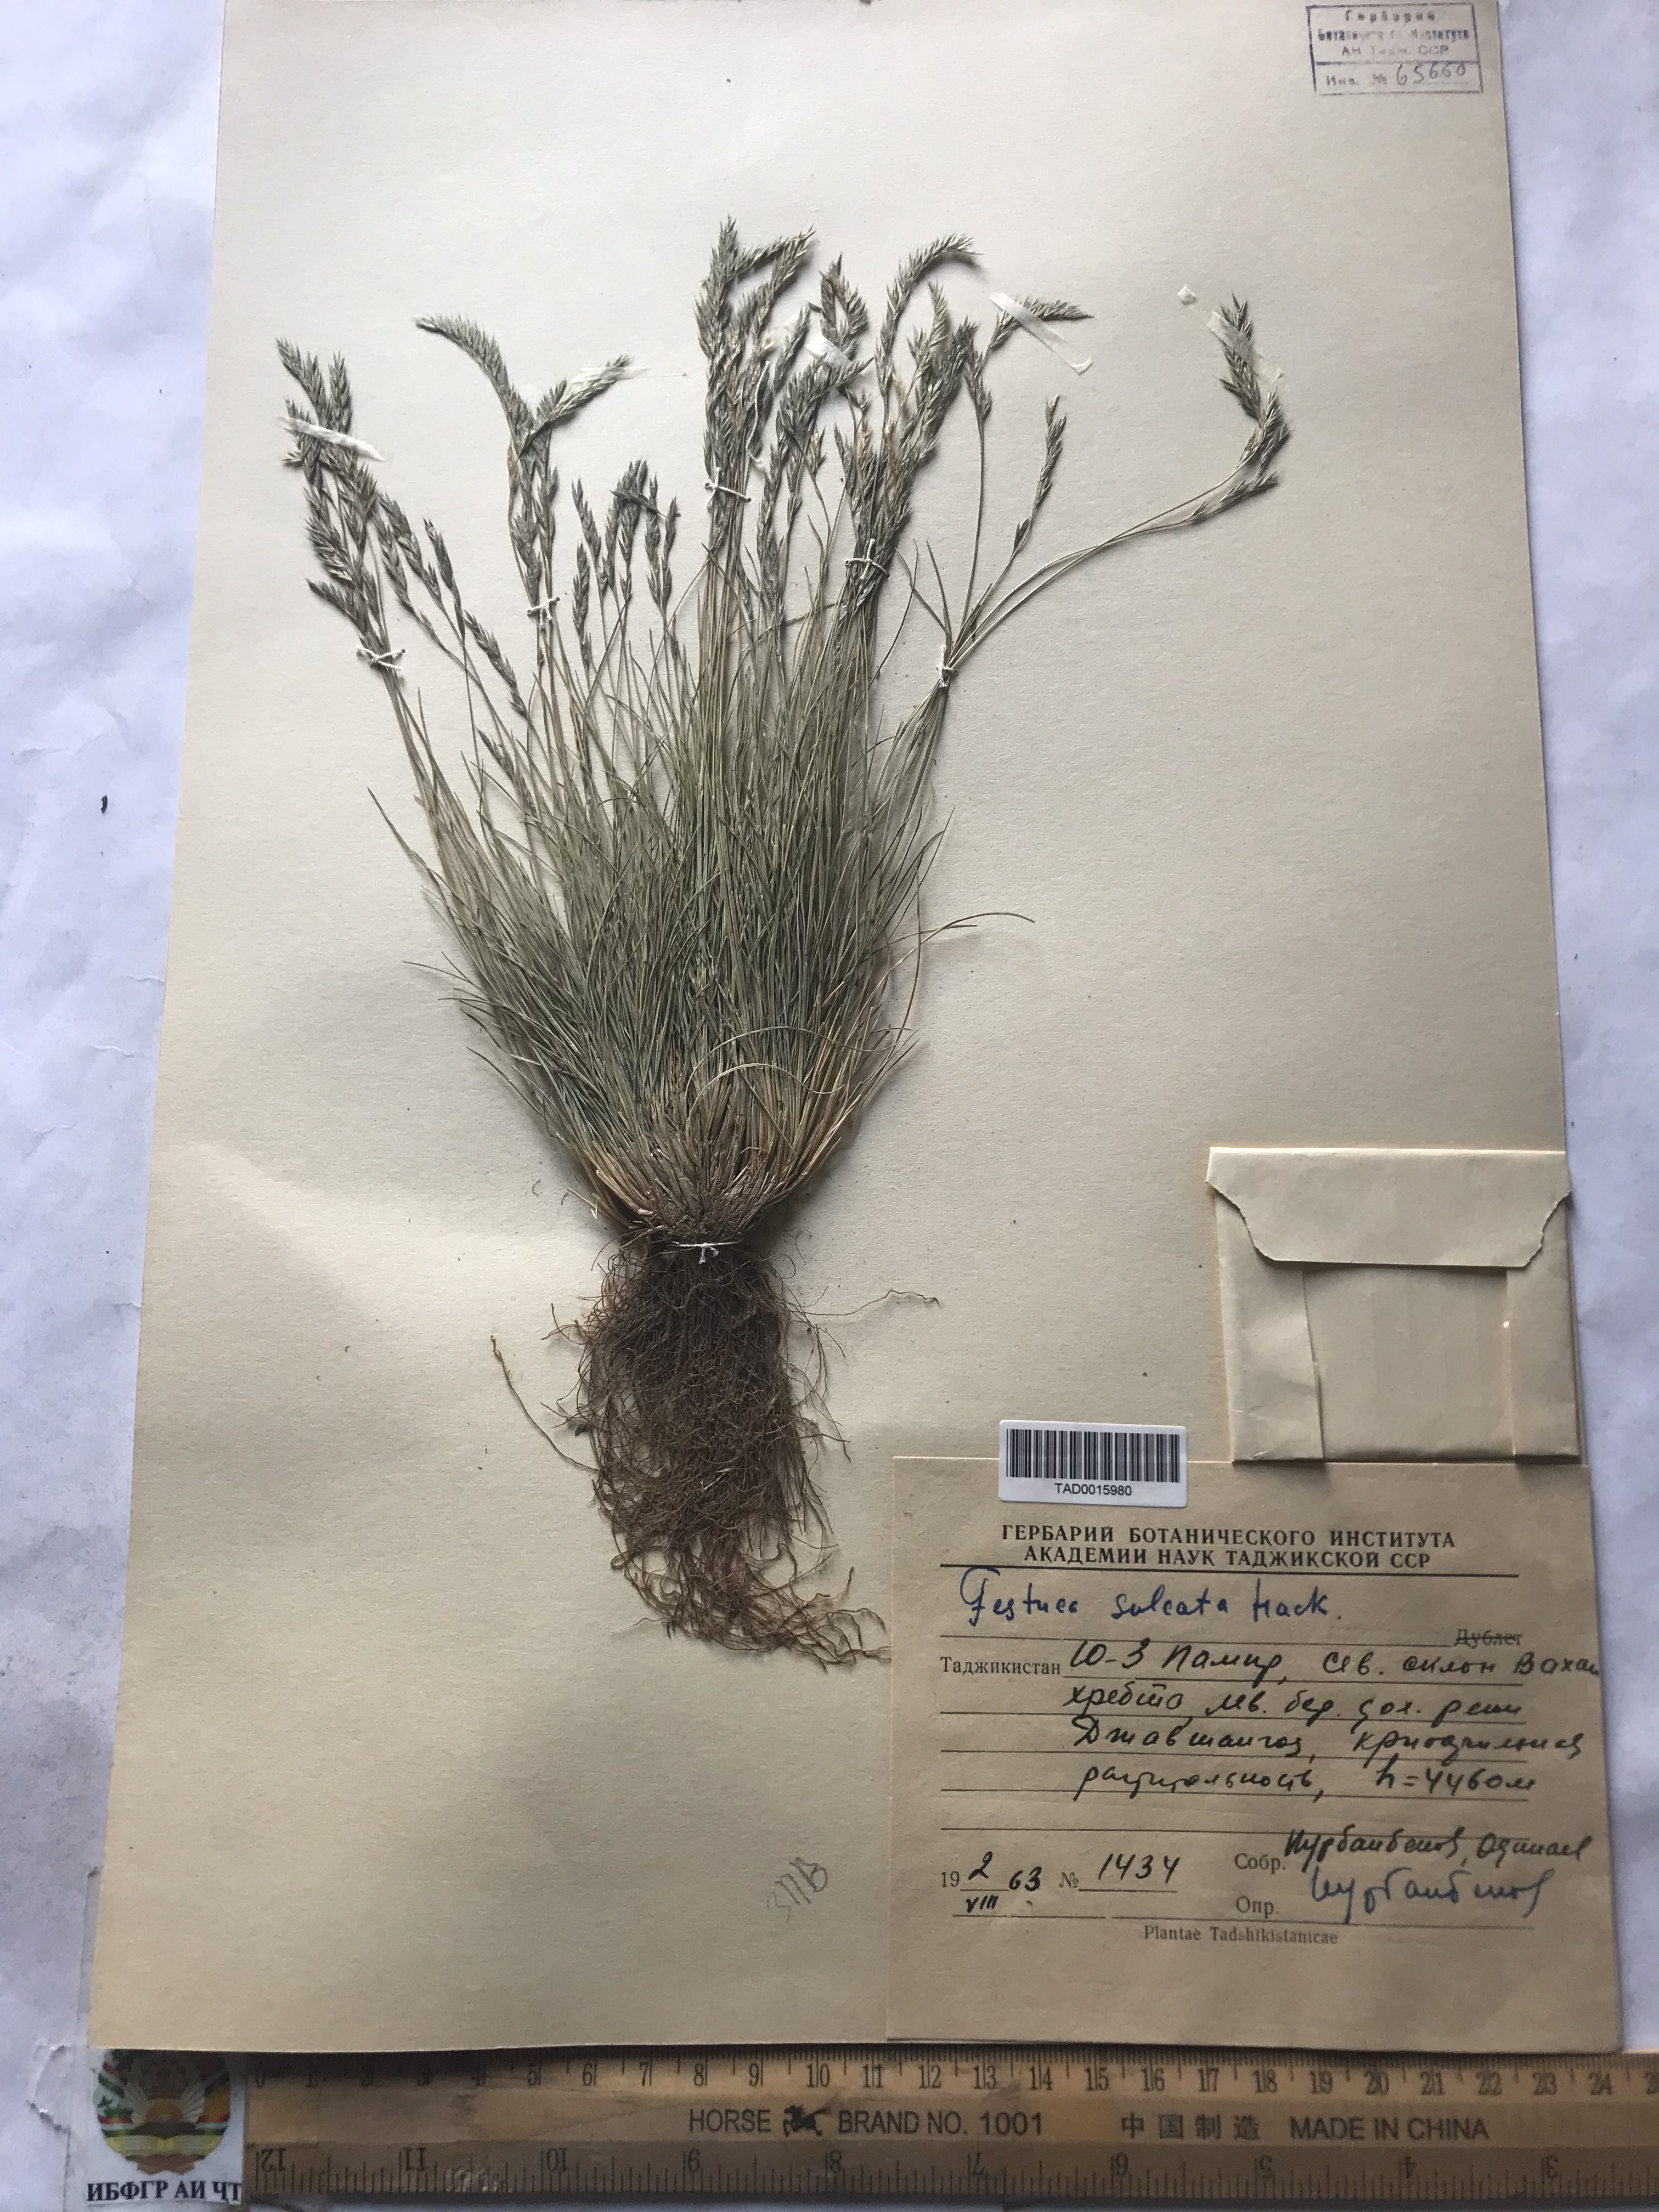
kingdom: Plantae
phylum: Tracheophyta
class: Liliopsida
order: Poales
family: Poaceae
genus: Festuca
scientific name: Festuca sulcata
